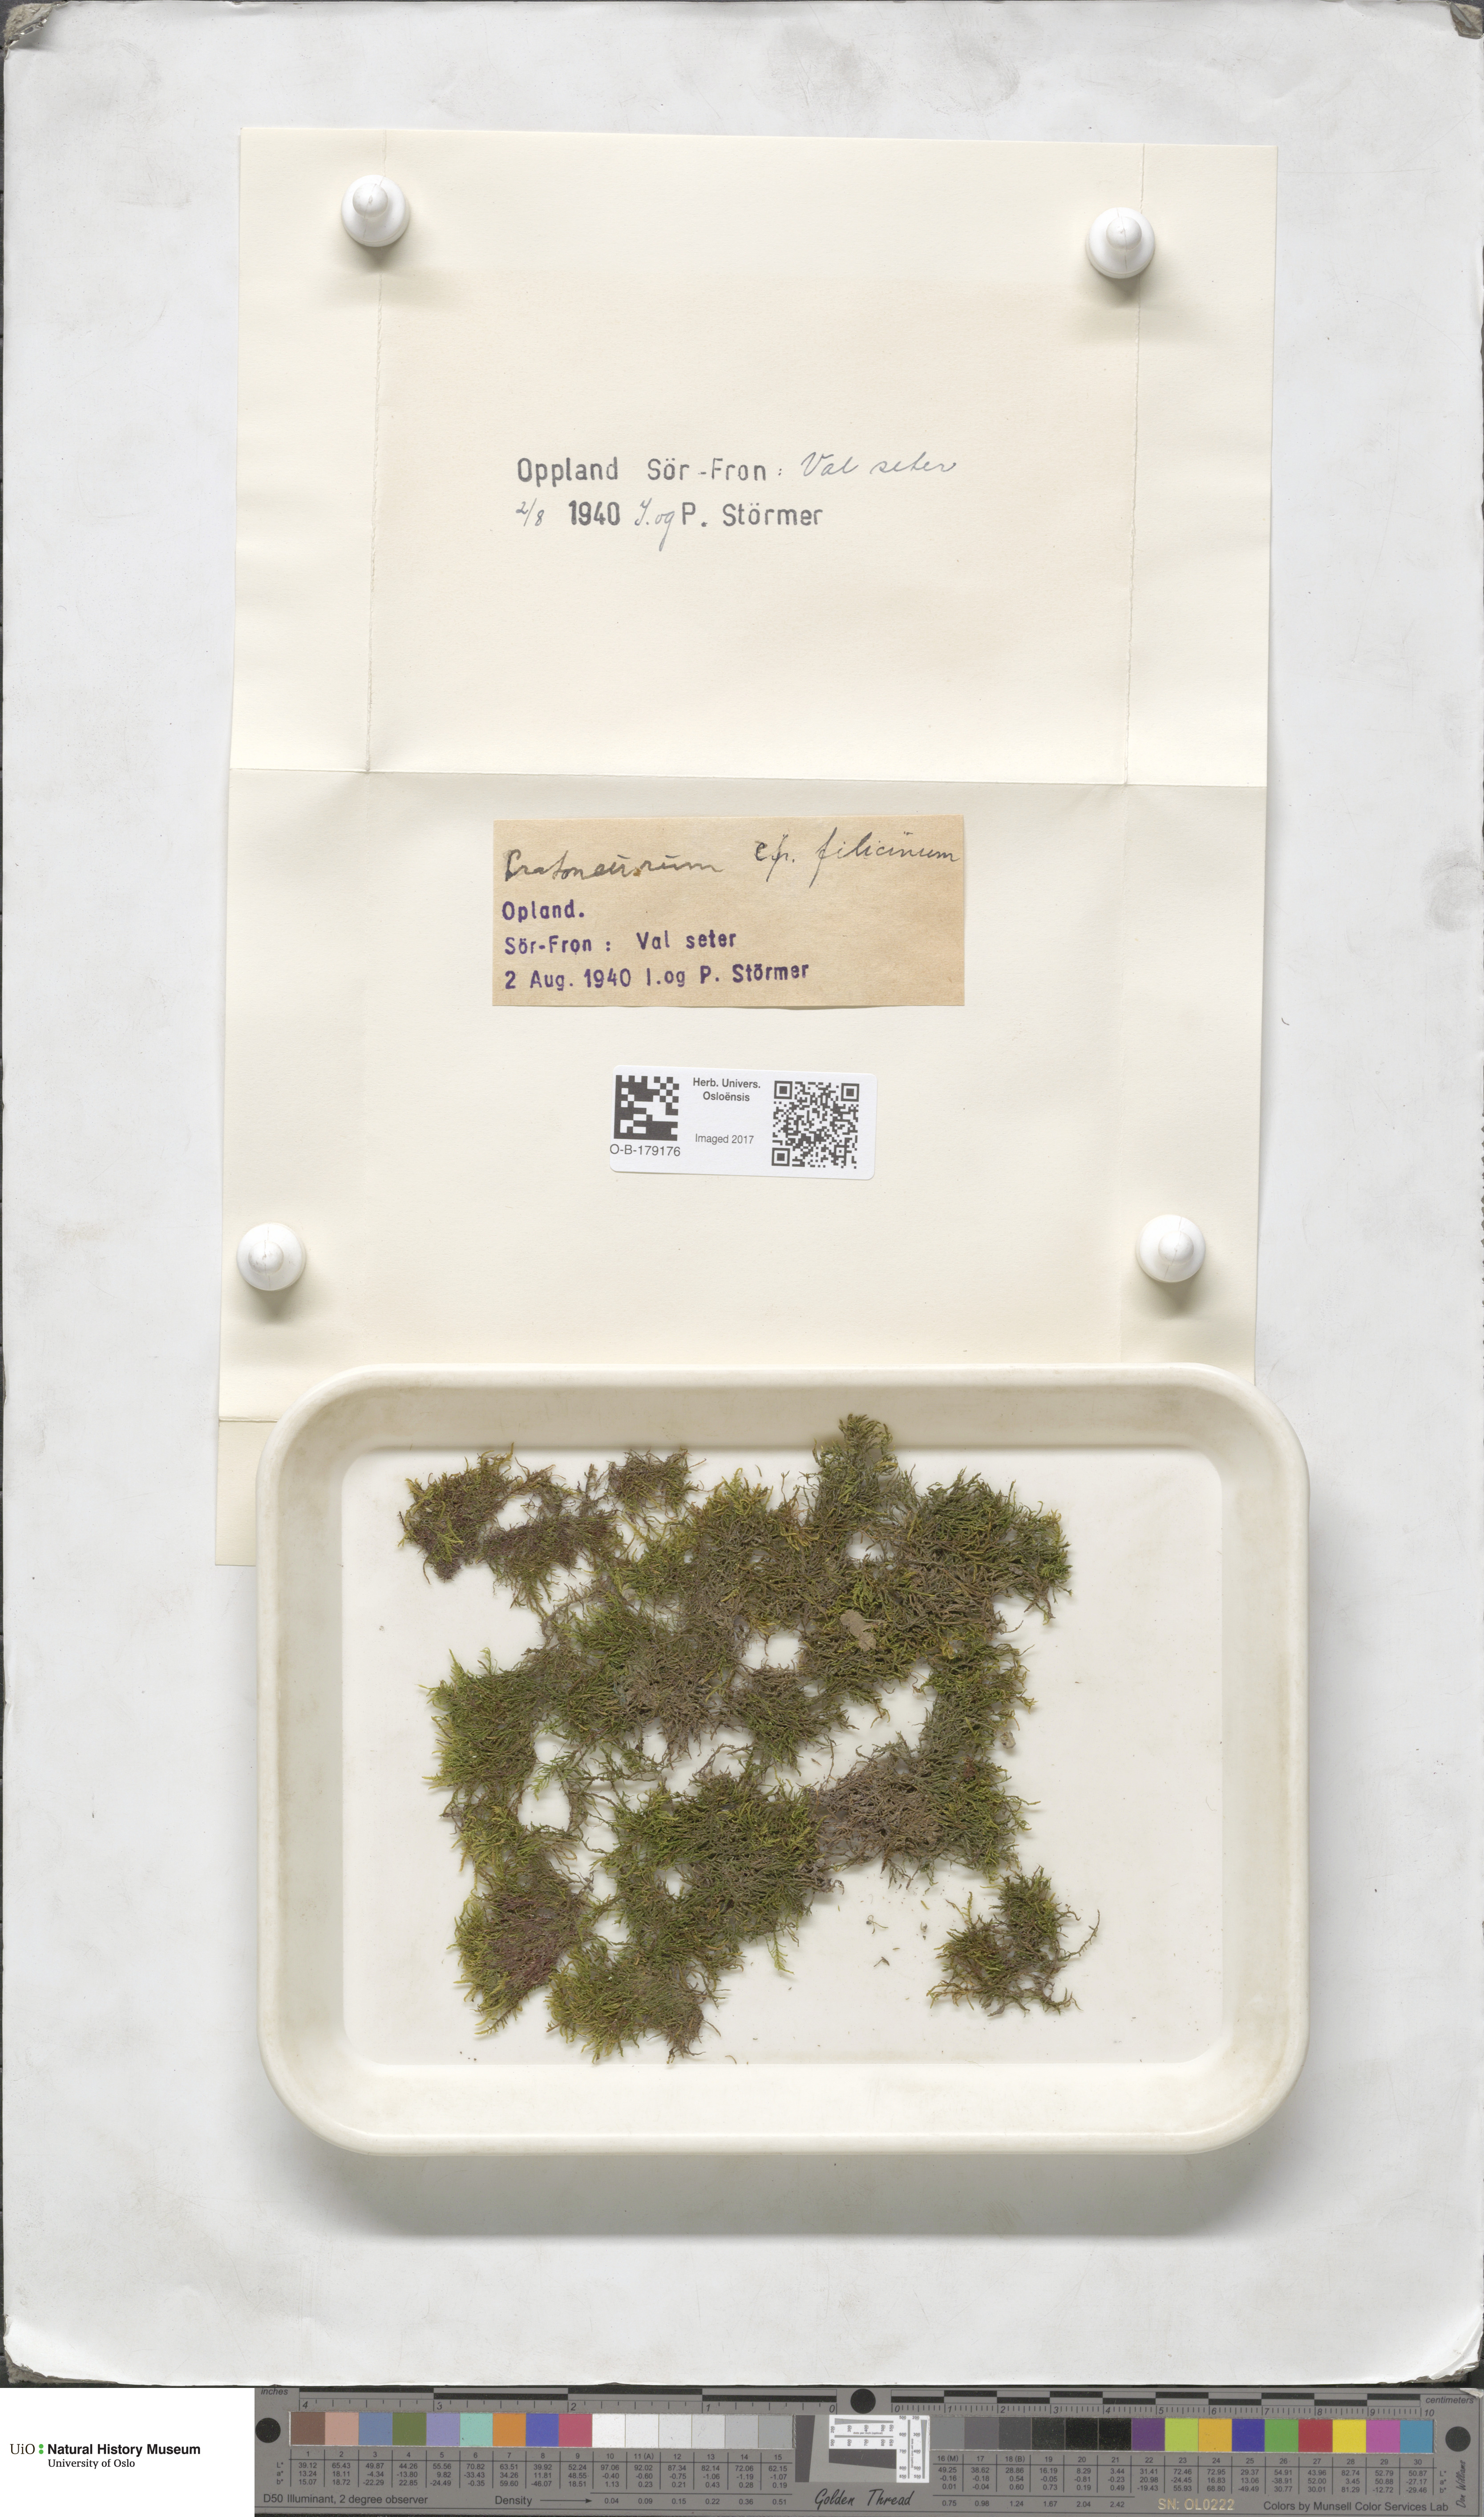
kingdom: Plantae
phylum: Bryophyta
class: Bryopsida
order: Hypnales
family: Amblystegiaceae
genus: Cratoneuron
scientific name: Cratoneuron filicinum
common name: Fern-leaved hook moss
